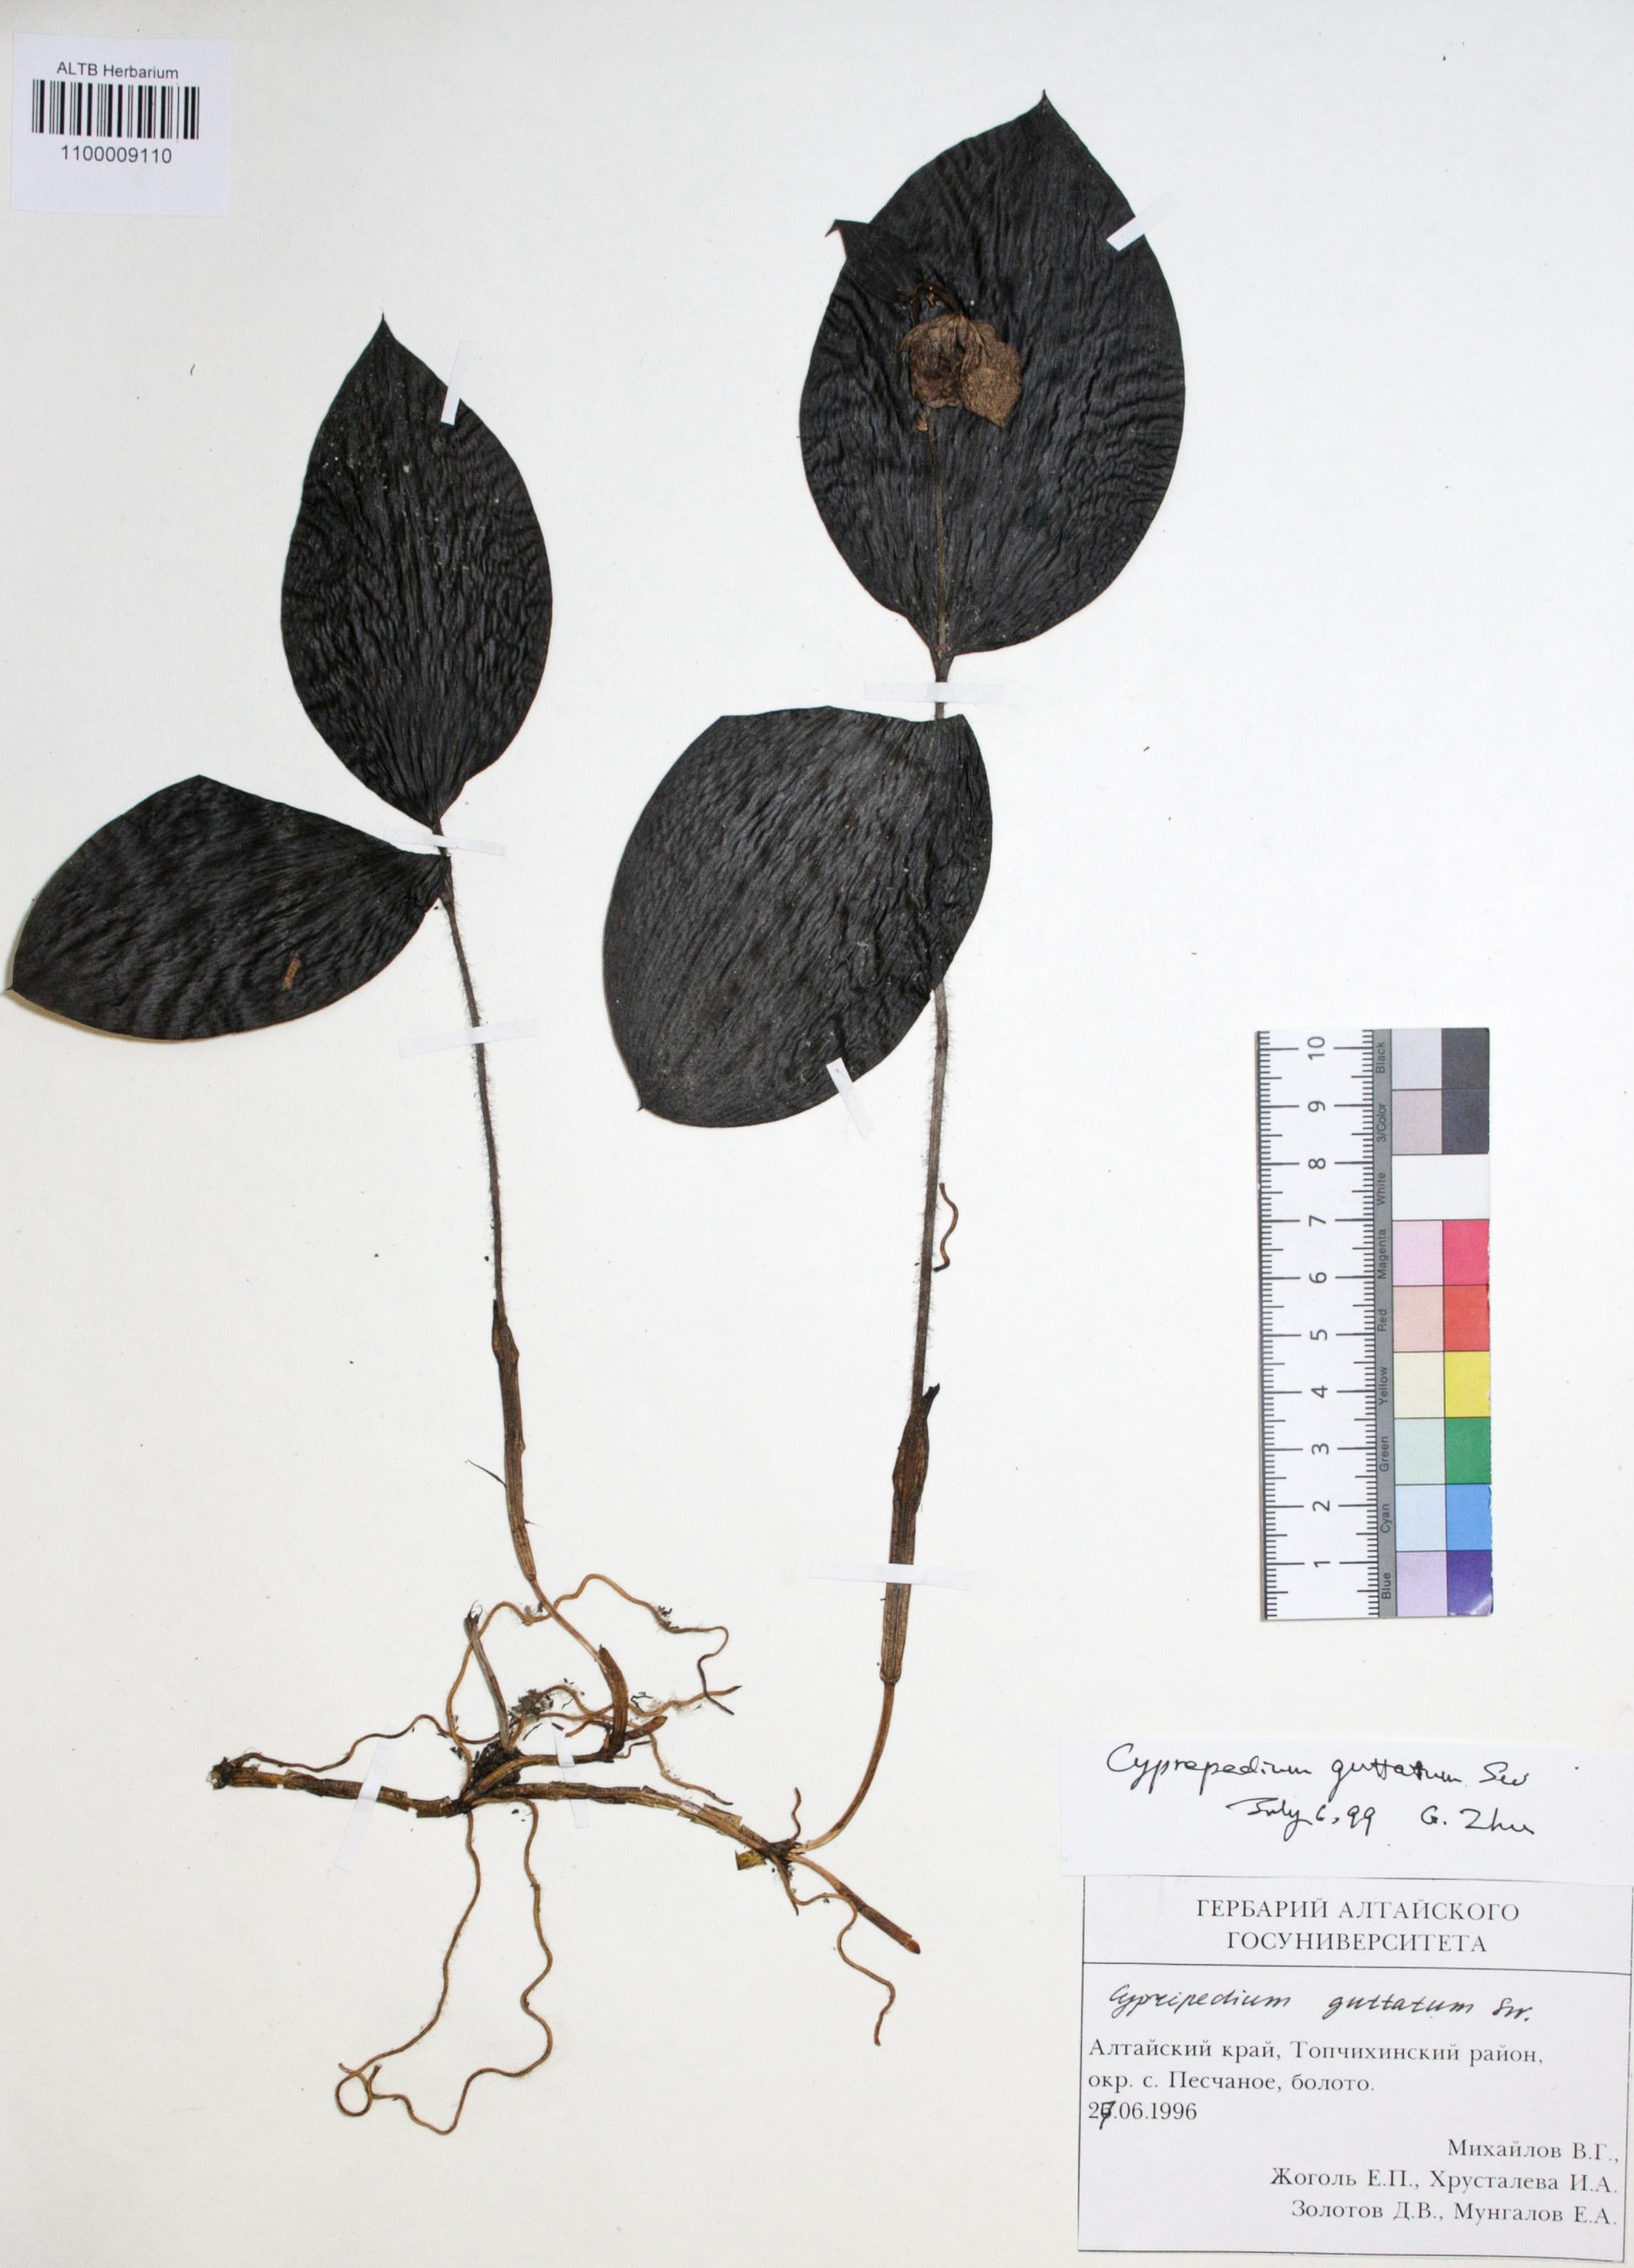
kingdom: Plantae
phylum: Tracheophyta
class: Liliopsida
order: Asparagales
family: Orchidaceae
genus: Cypripedium
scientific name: Cypripedium guttatum
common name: Pink lady slipper
